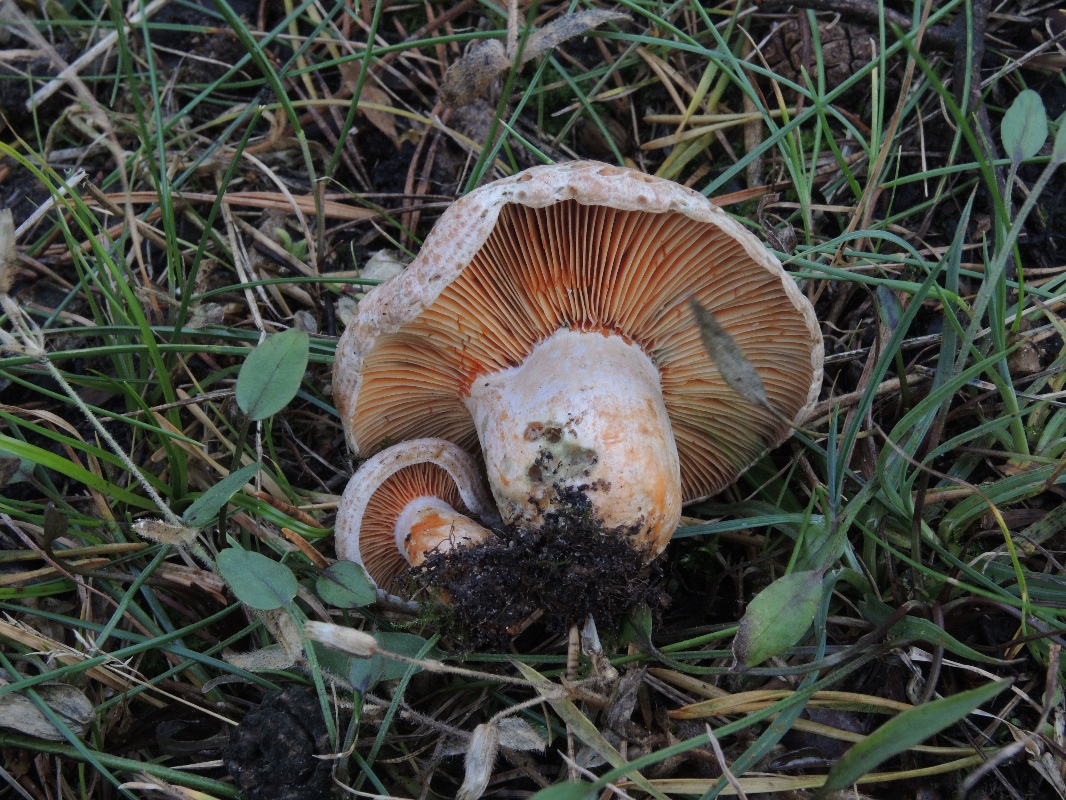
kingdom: Fungi
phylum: Basidiomycota
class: Agaricomycetes
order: Russulales
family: Russulaceae
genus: Lactarius
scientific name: Lactarius quieticolor
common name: tvefarvet mælkehat
